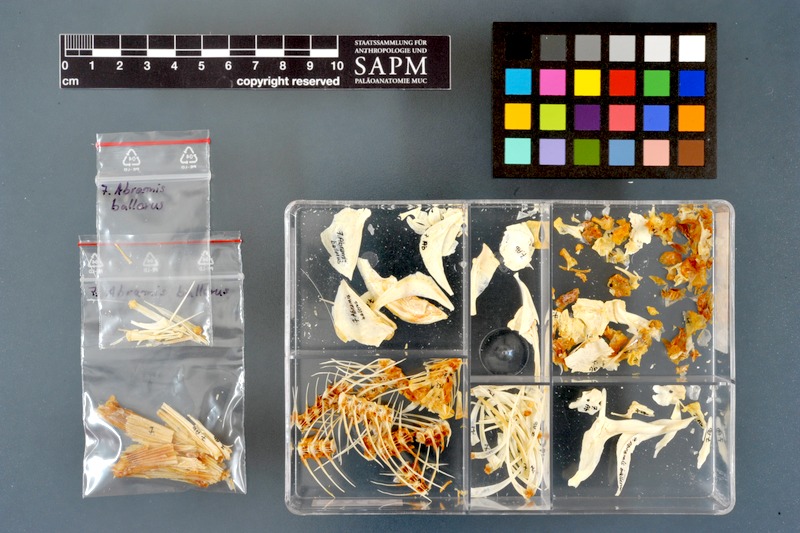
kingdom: Animalia
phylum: Chordata
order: Cypriniformes
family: Cyprinidae
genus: Ballerus
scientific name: Ballerus ballerus
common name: Blue bream
